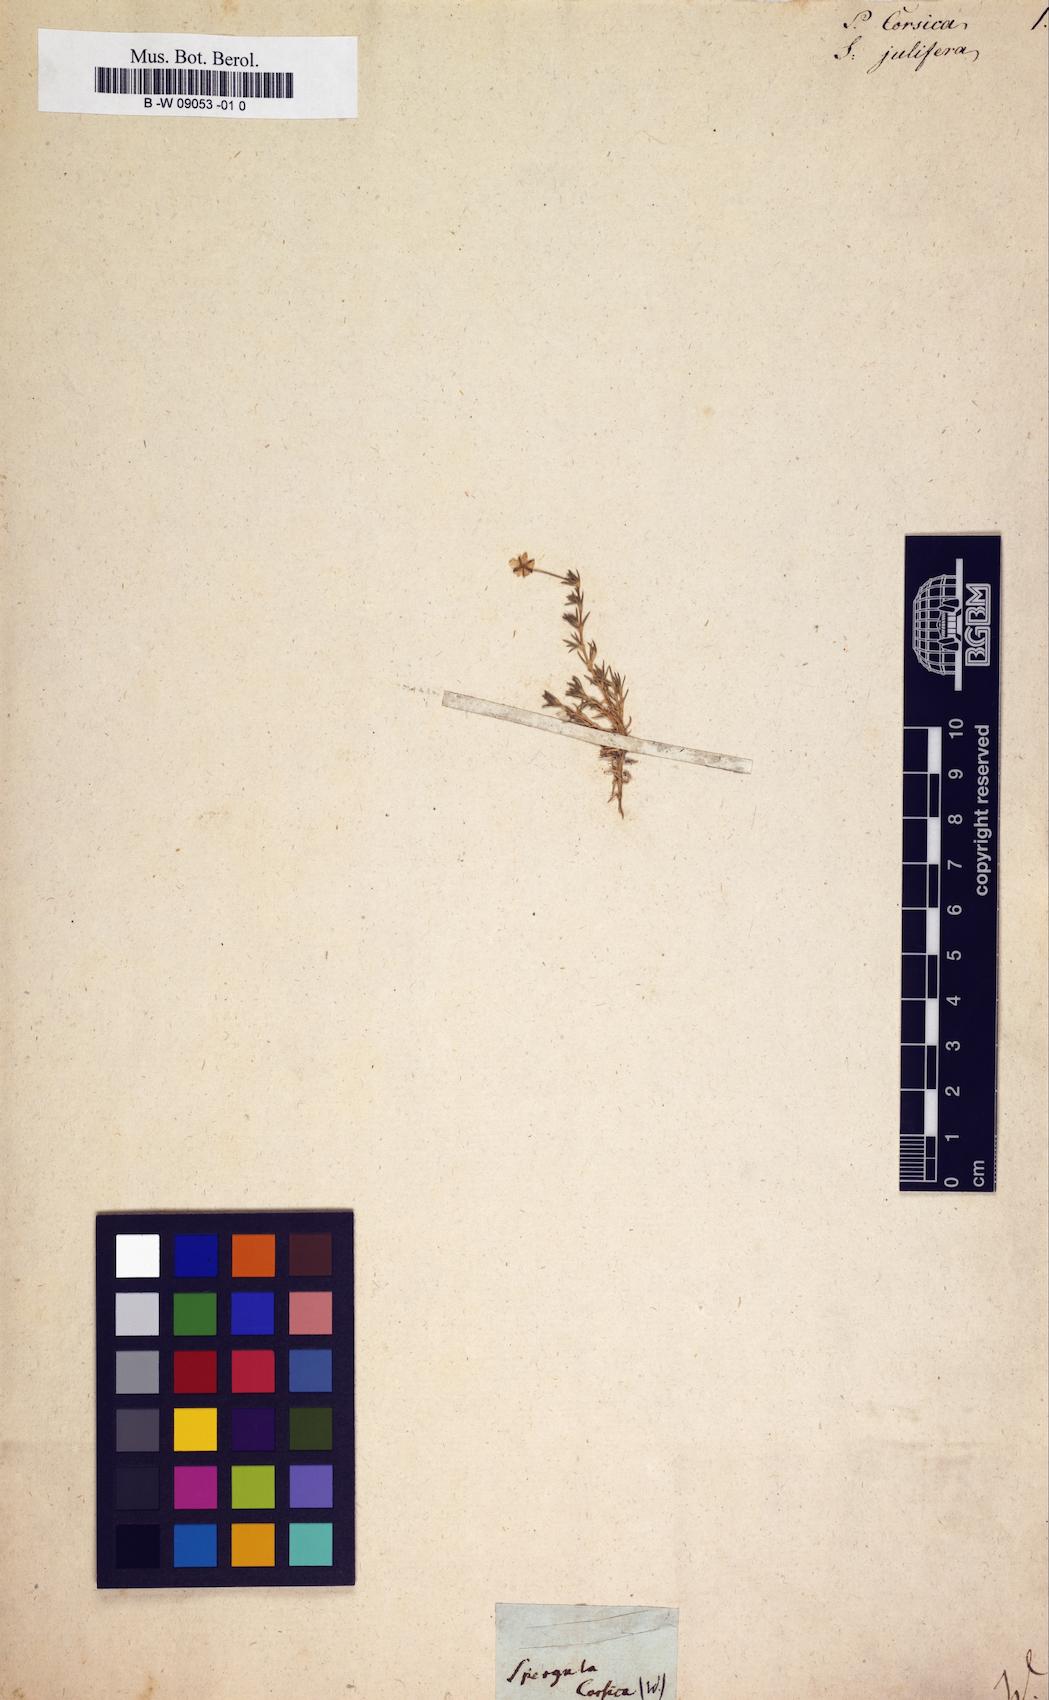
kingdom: Plantae
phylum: Tracheophyta
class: Magnoliopsida
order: Caryophyllales
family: Caryophyllaceae
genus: Spergula
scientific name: Spergula
